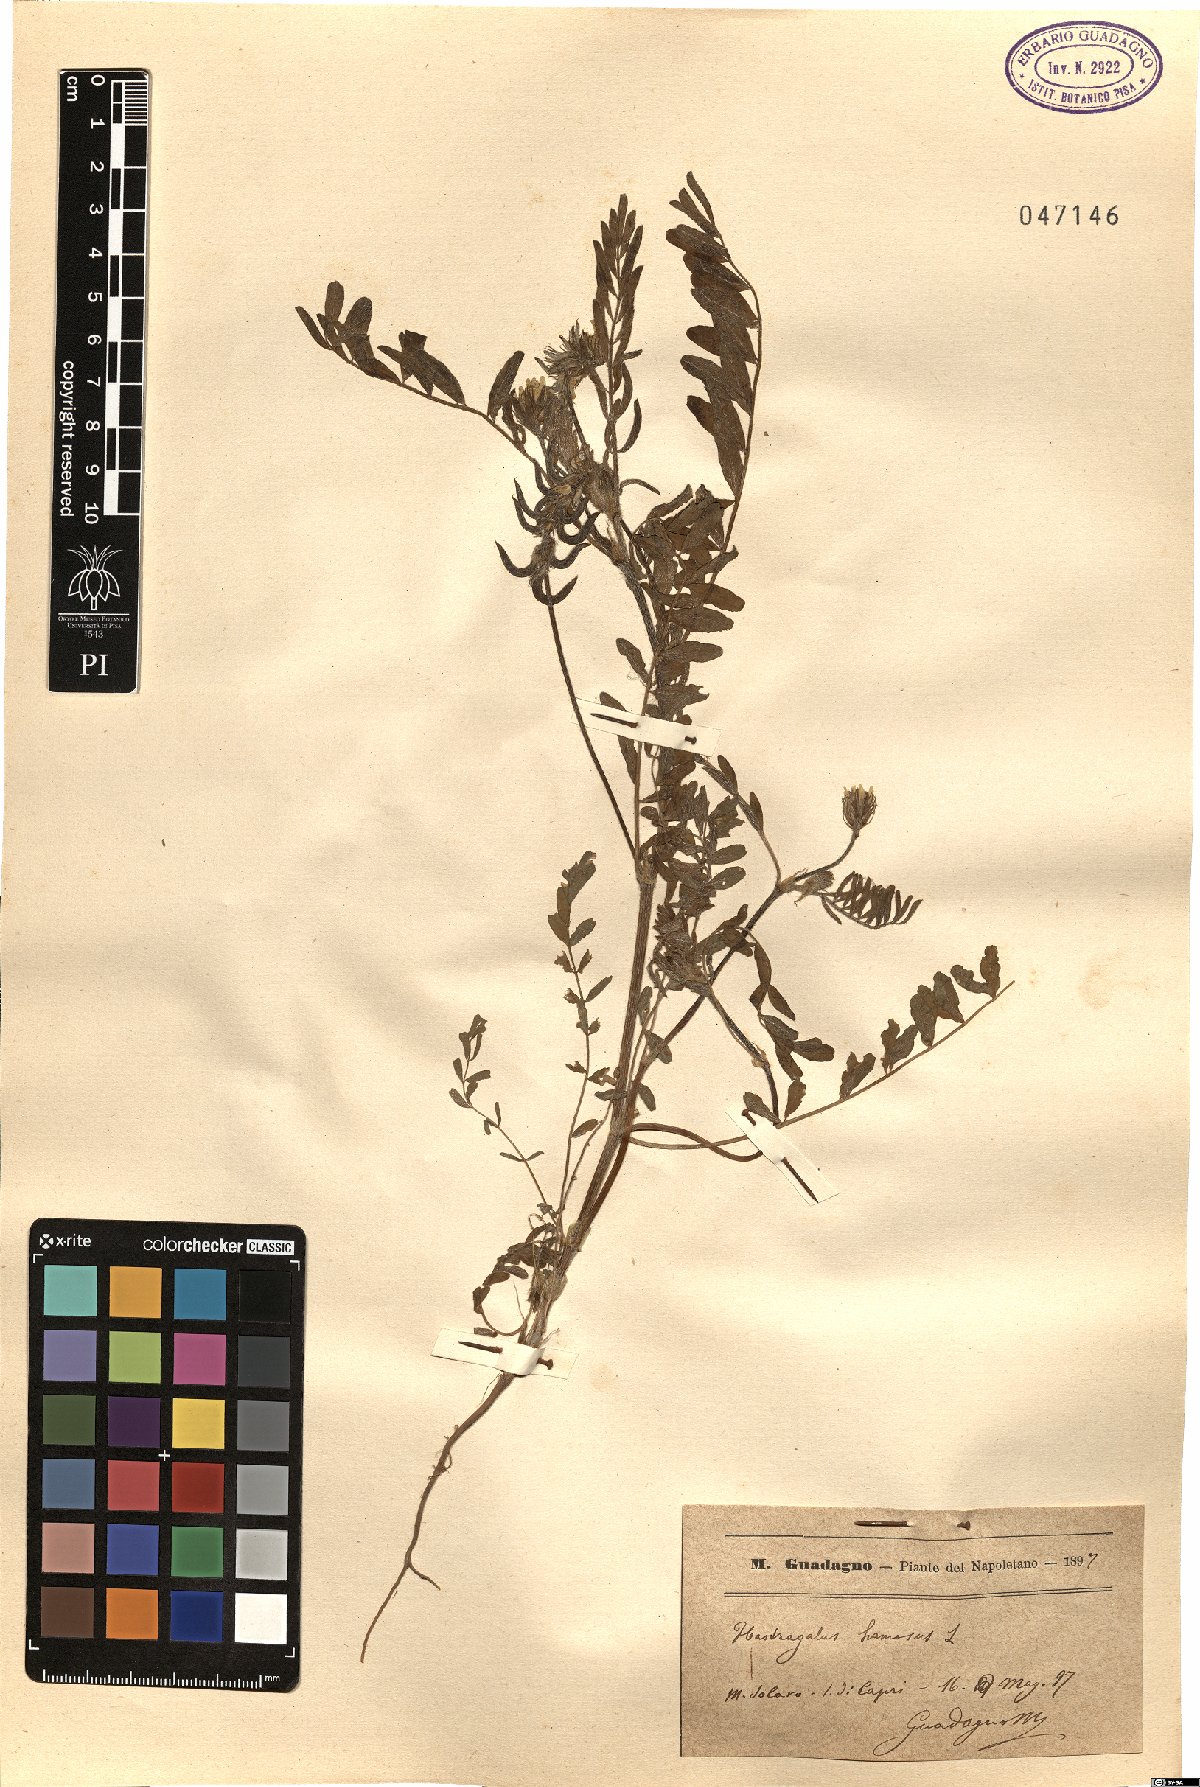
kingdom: Plantae
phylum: Tracheophyta
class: Magnoliopsida
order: Fabales
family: Fabaceae
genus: Astragalus
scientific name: Astragalus hamosus
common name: European milkvetch
